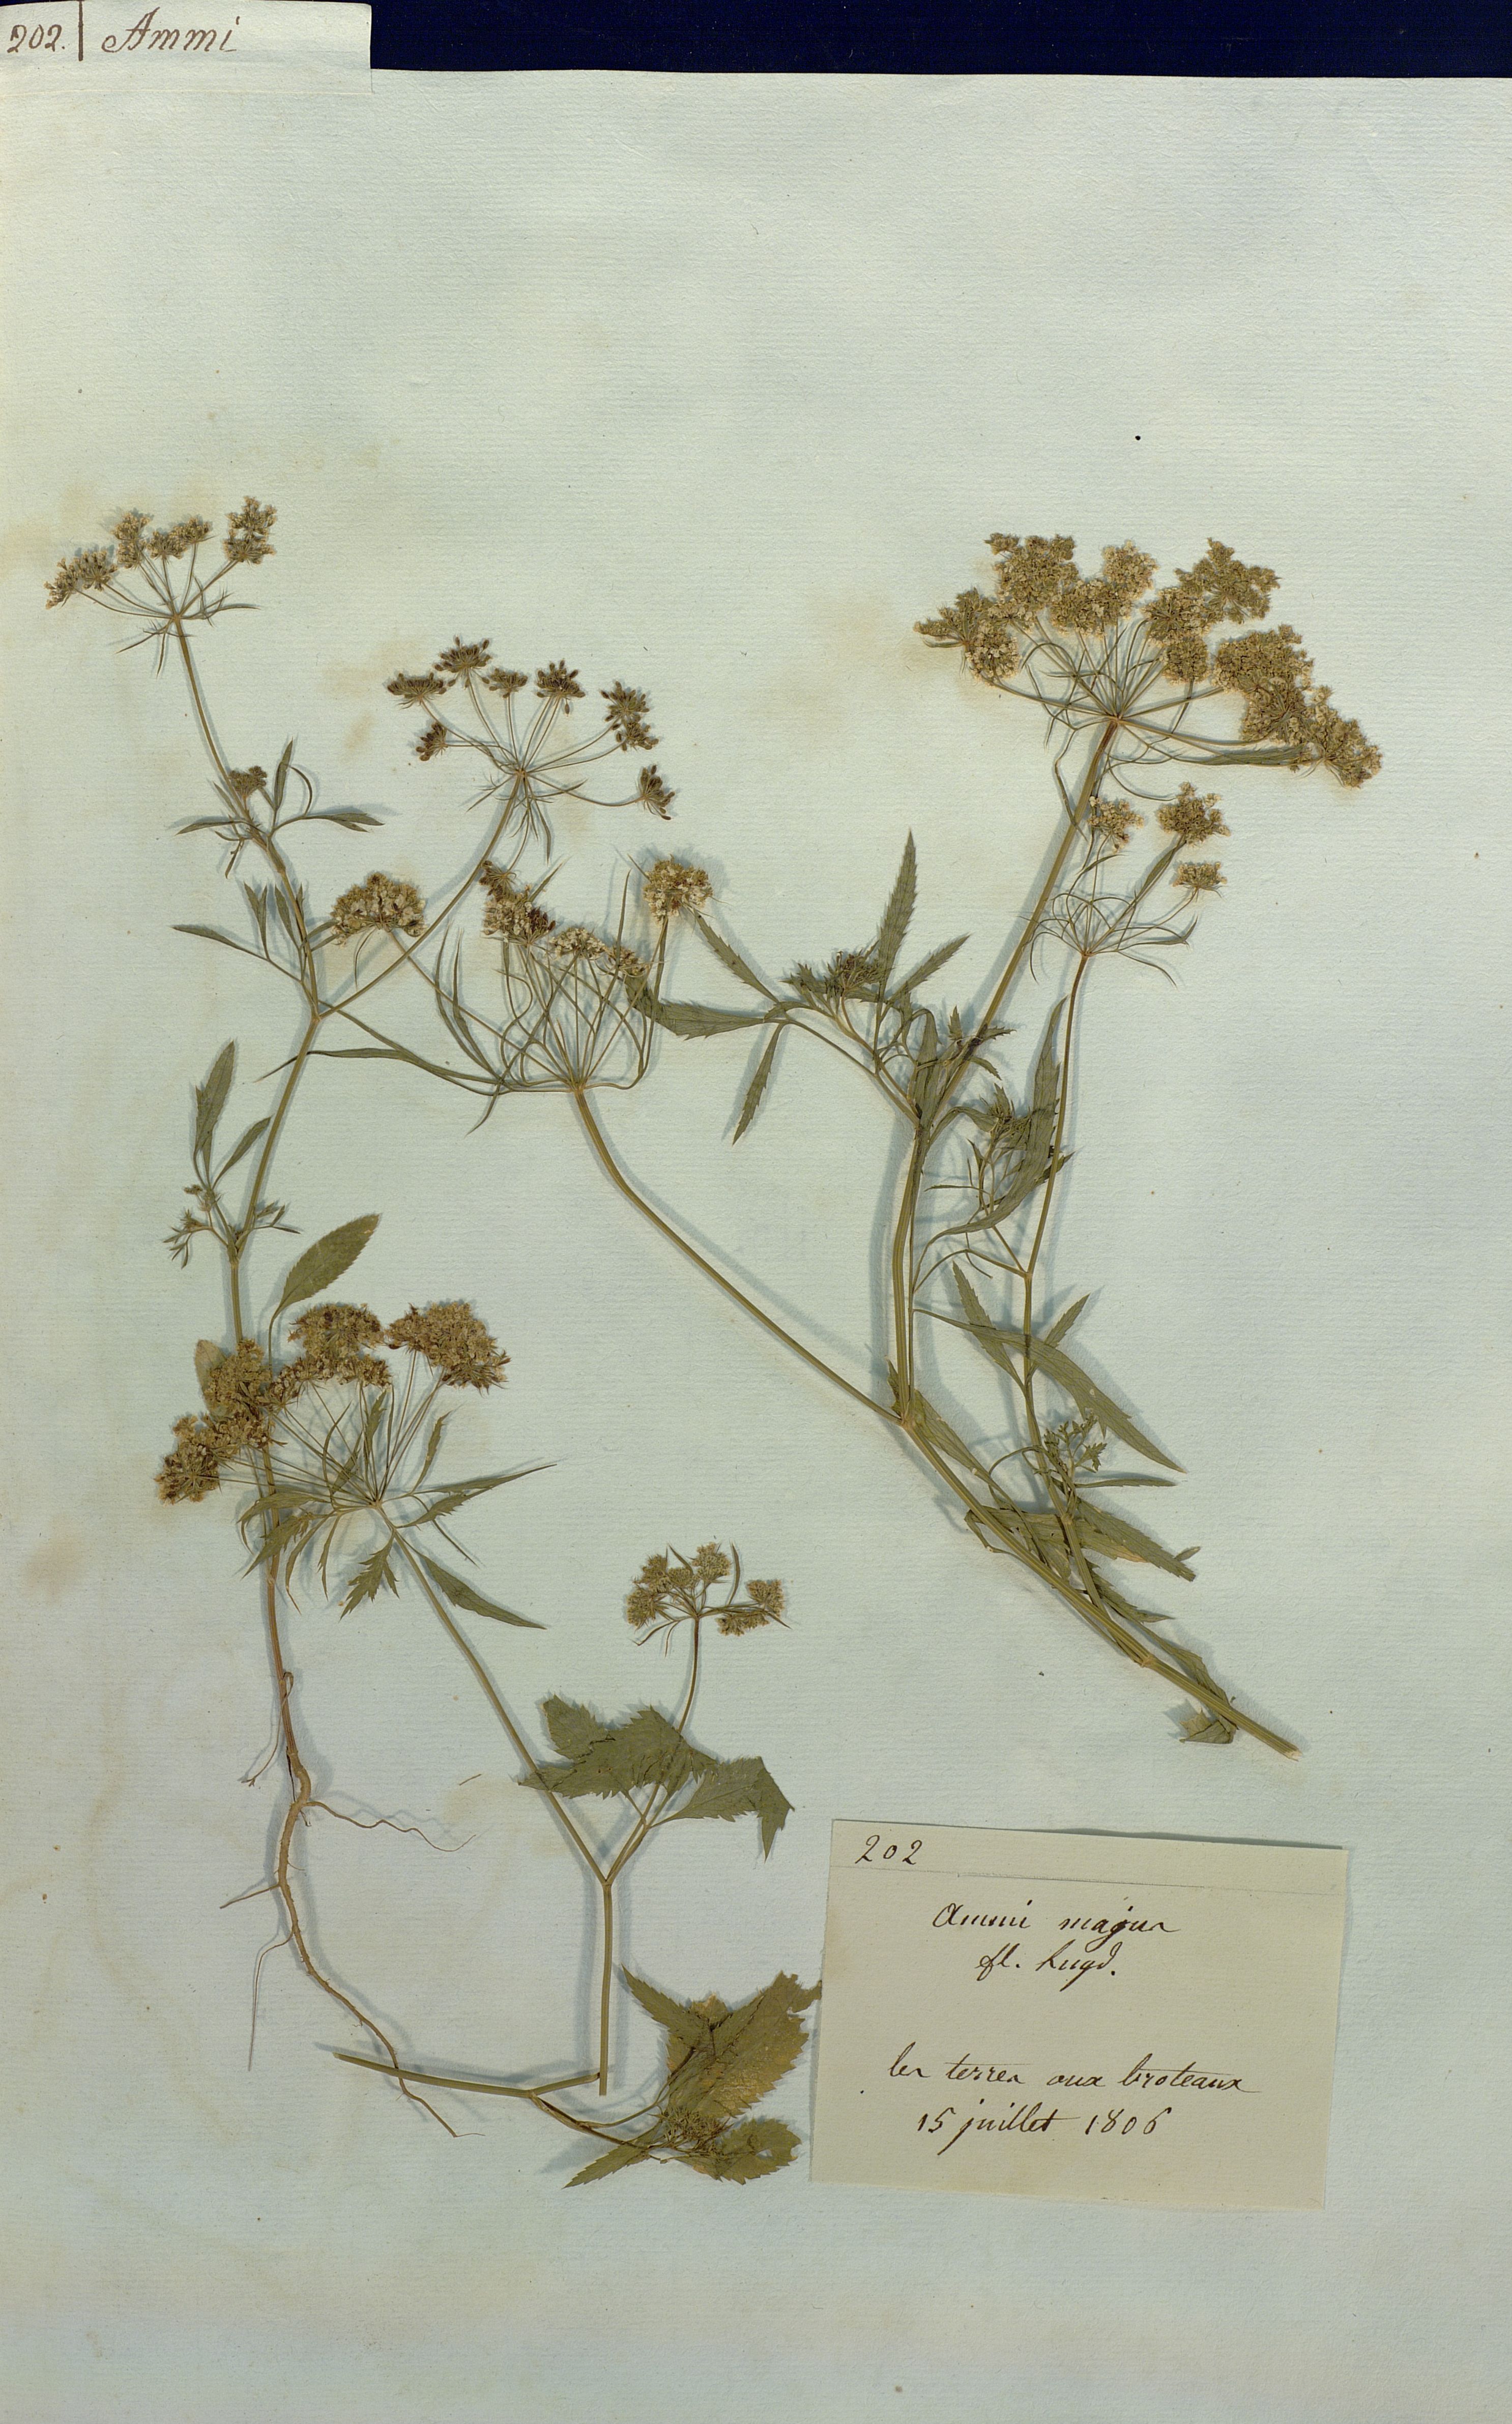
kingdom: Plantae
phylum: Tracheophyta
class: Magnoliopsida
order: Apiales
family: Apiaceae
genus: Ammi
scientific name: Ammi majus
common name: Bullwort
